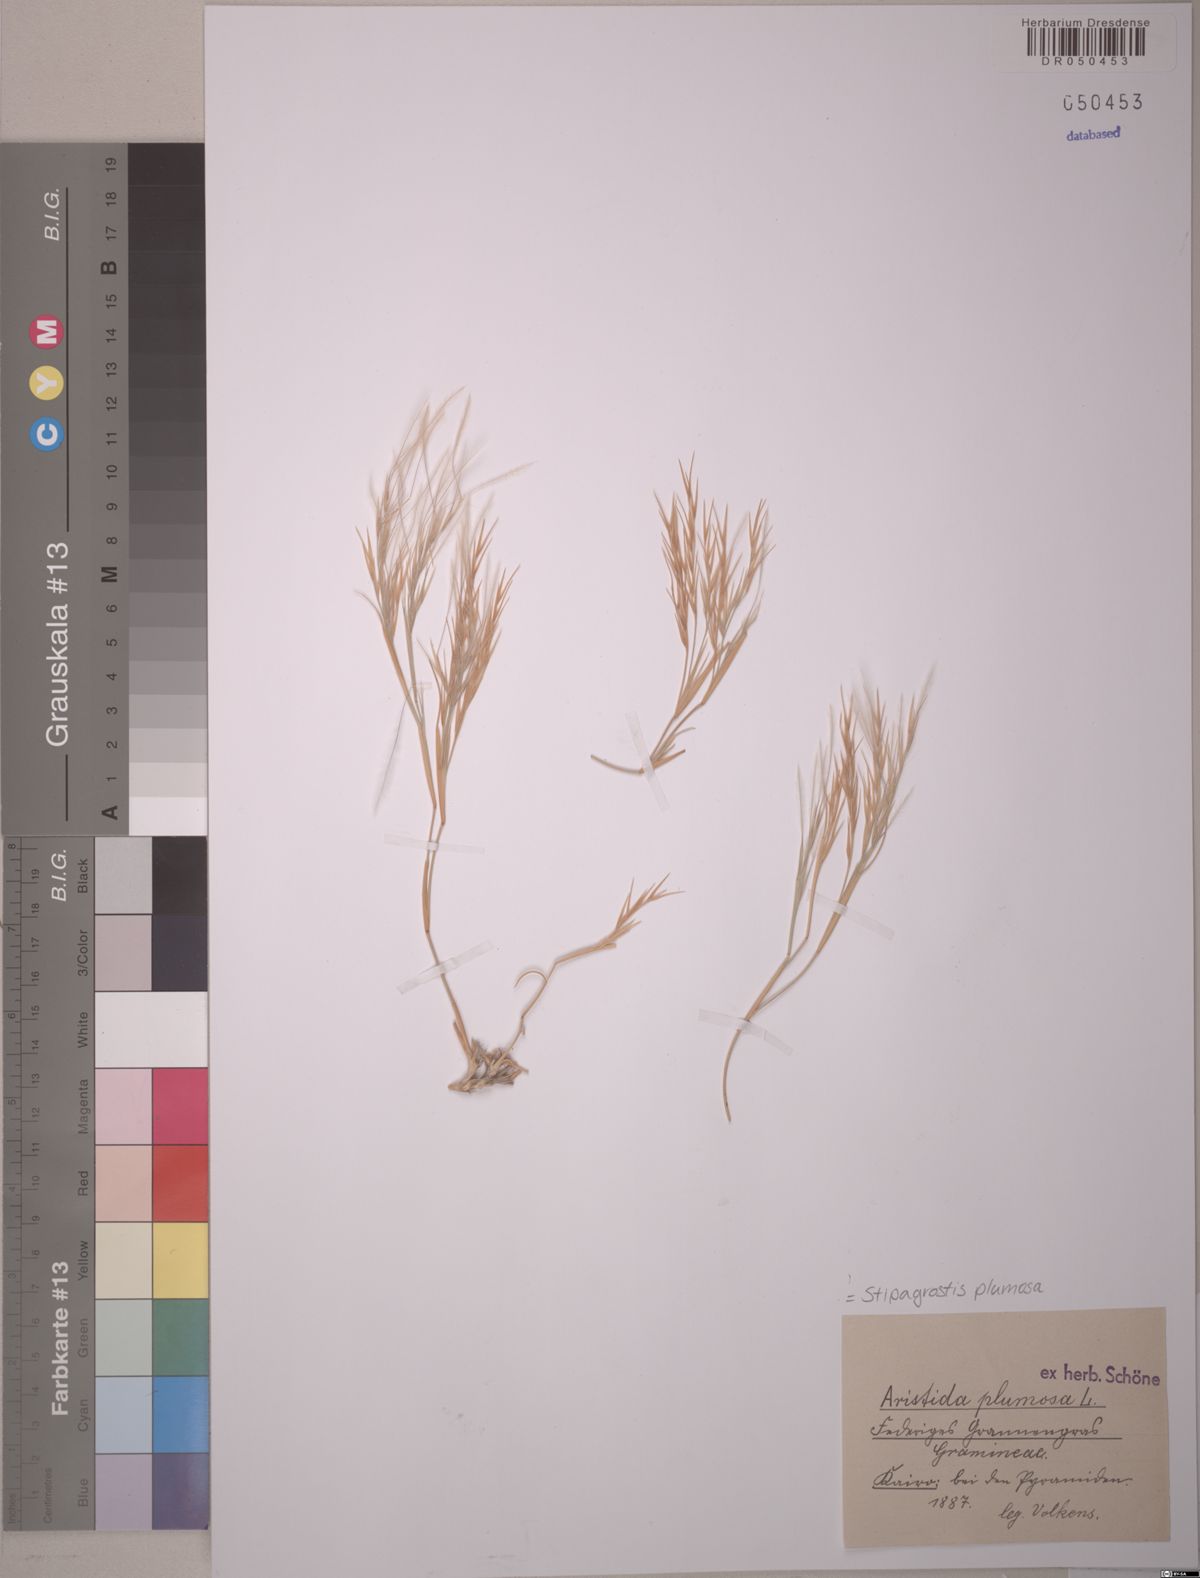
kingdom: Plantae
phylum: Tracheophyta
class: Liliopsida
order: Poales
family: Poaceae
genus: Stipagrostis
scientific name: Stipagrostis plumosa
